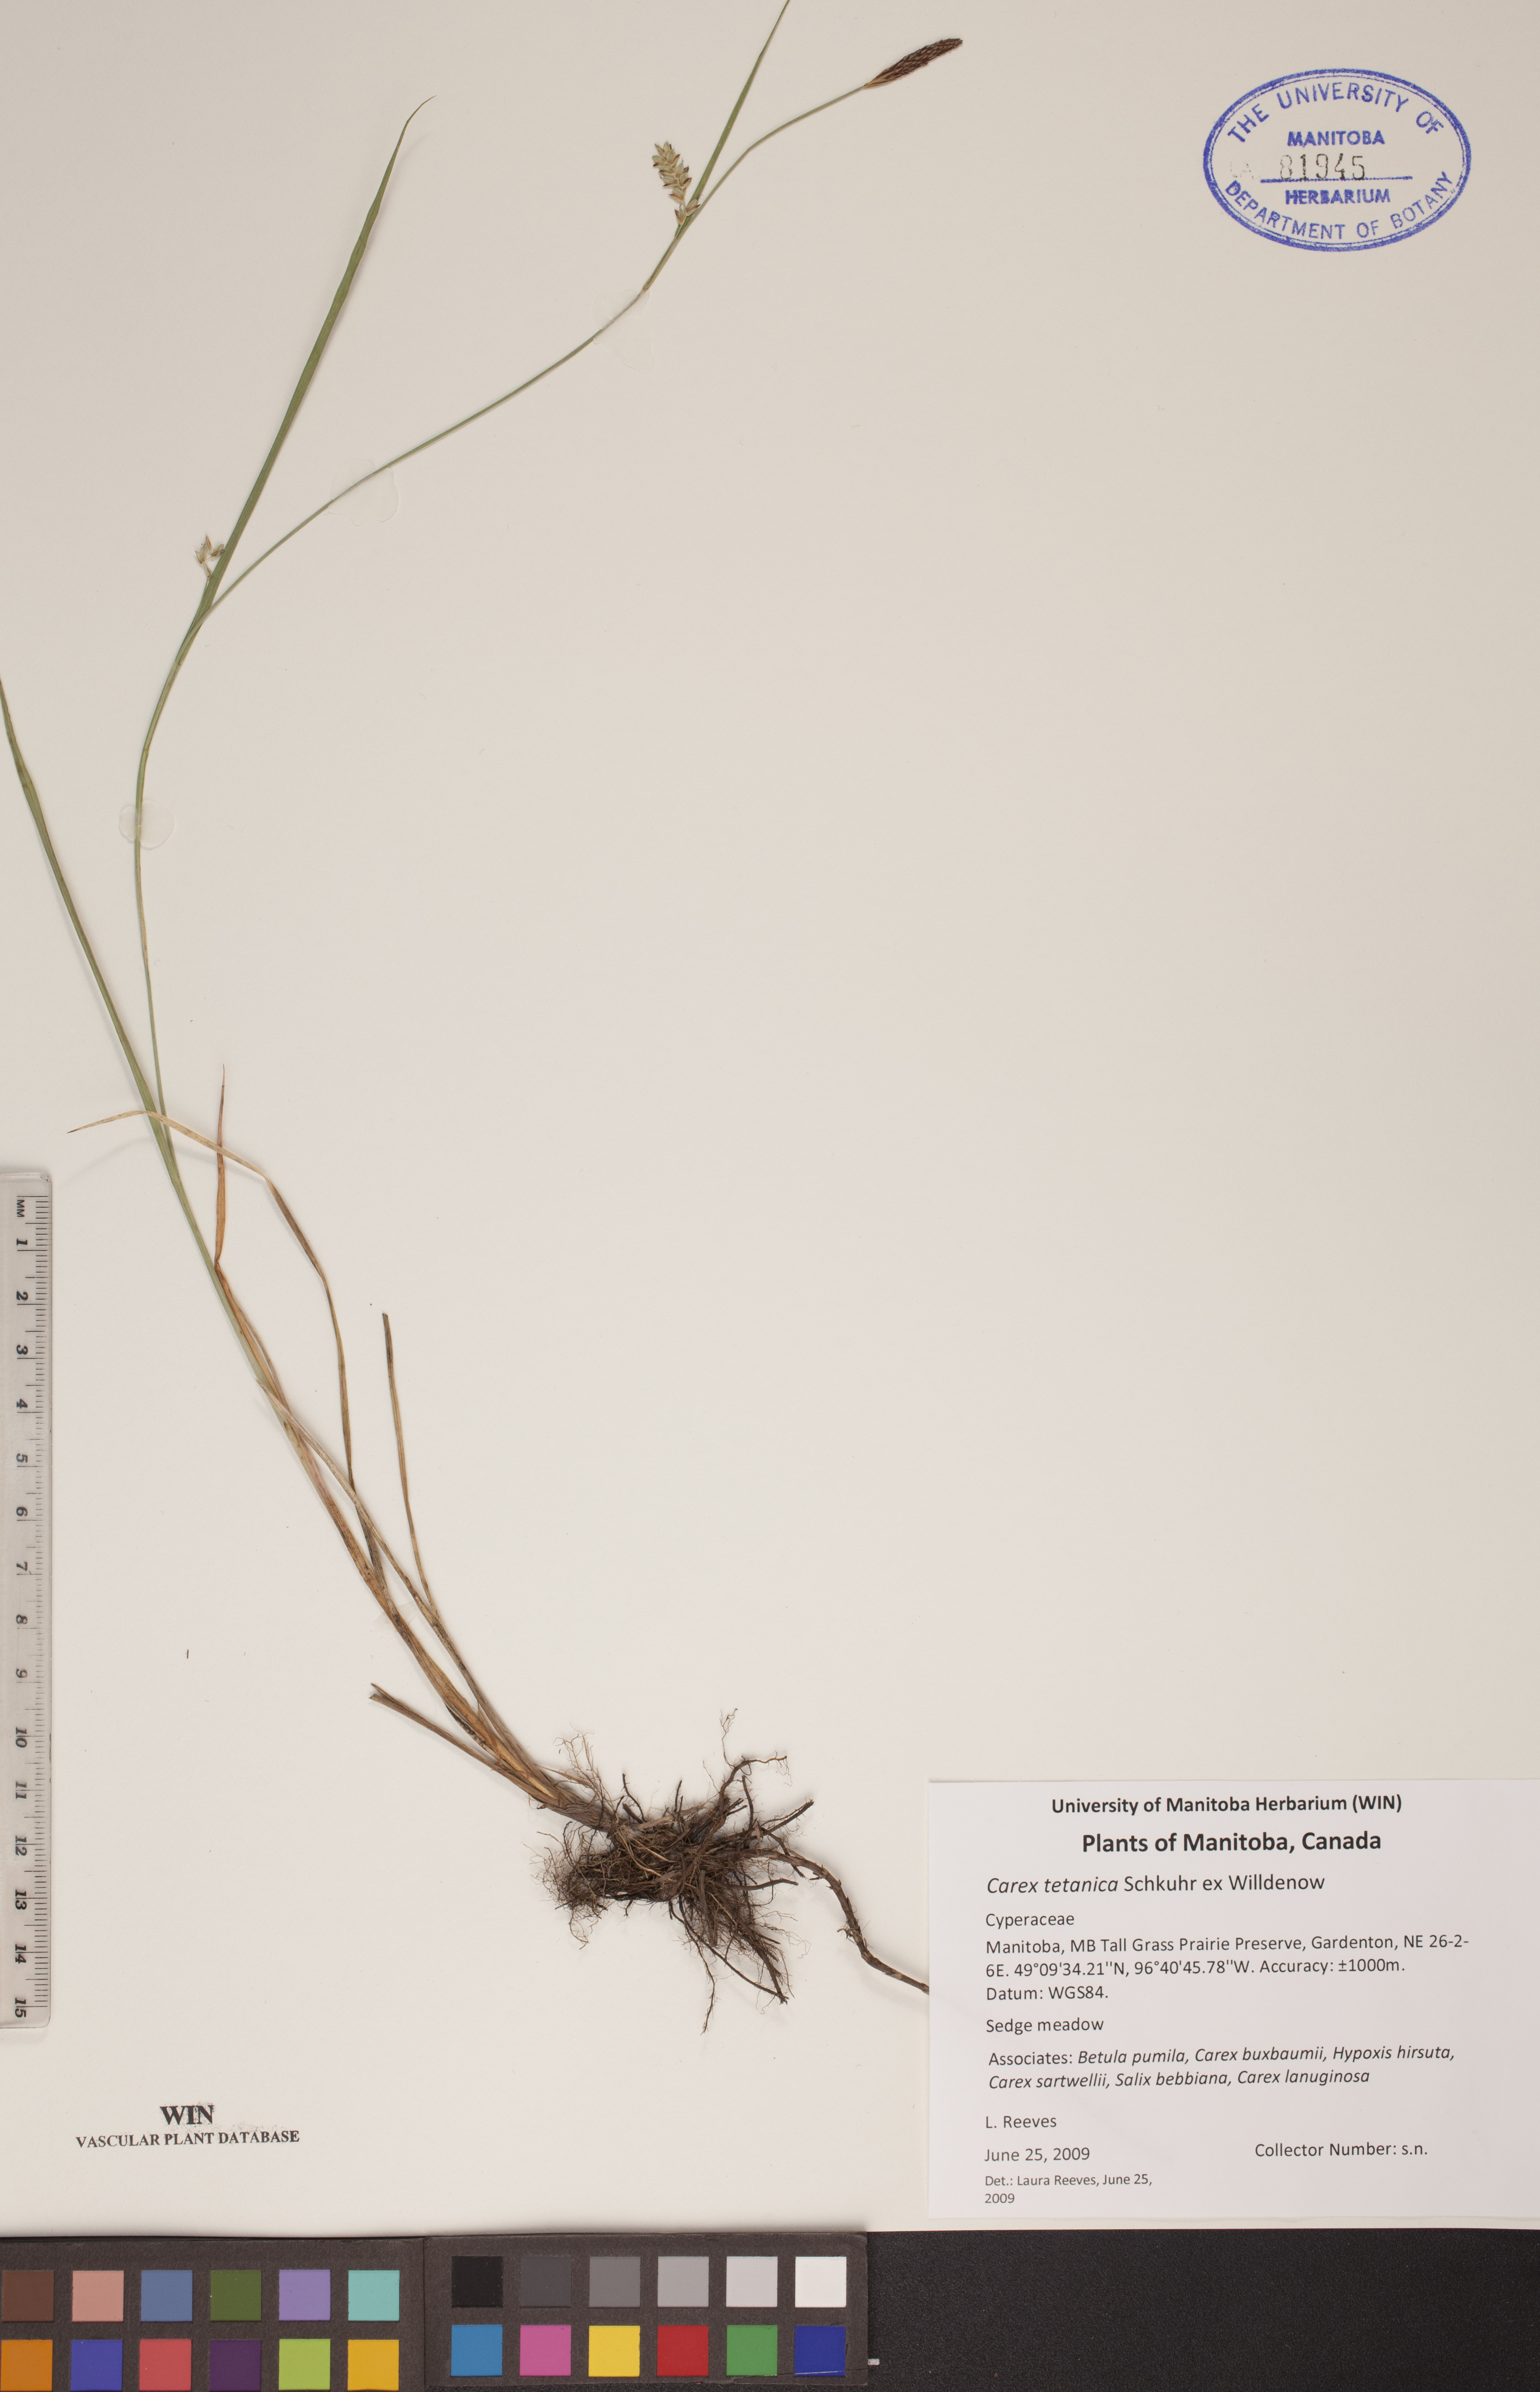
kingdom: Plantae
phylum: Tracheophyta
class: Liliopsida
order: Poales
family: Cyperaceae
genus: Carex
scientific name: Carex tetanica
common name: Rigid sedge
